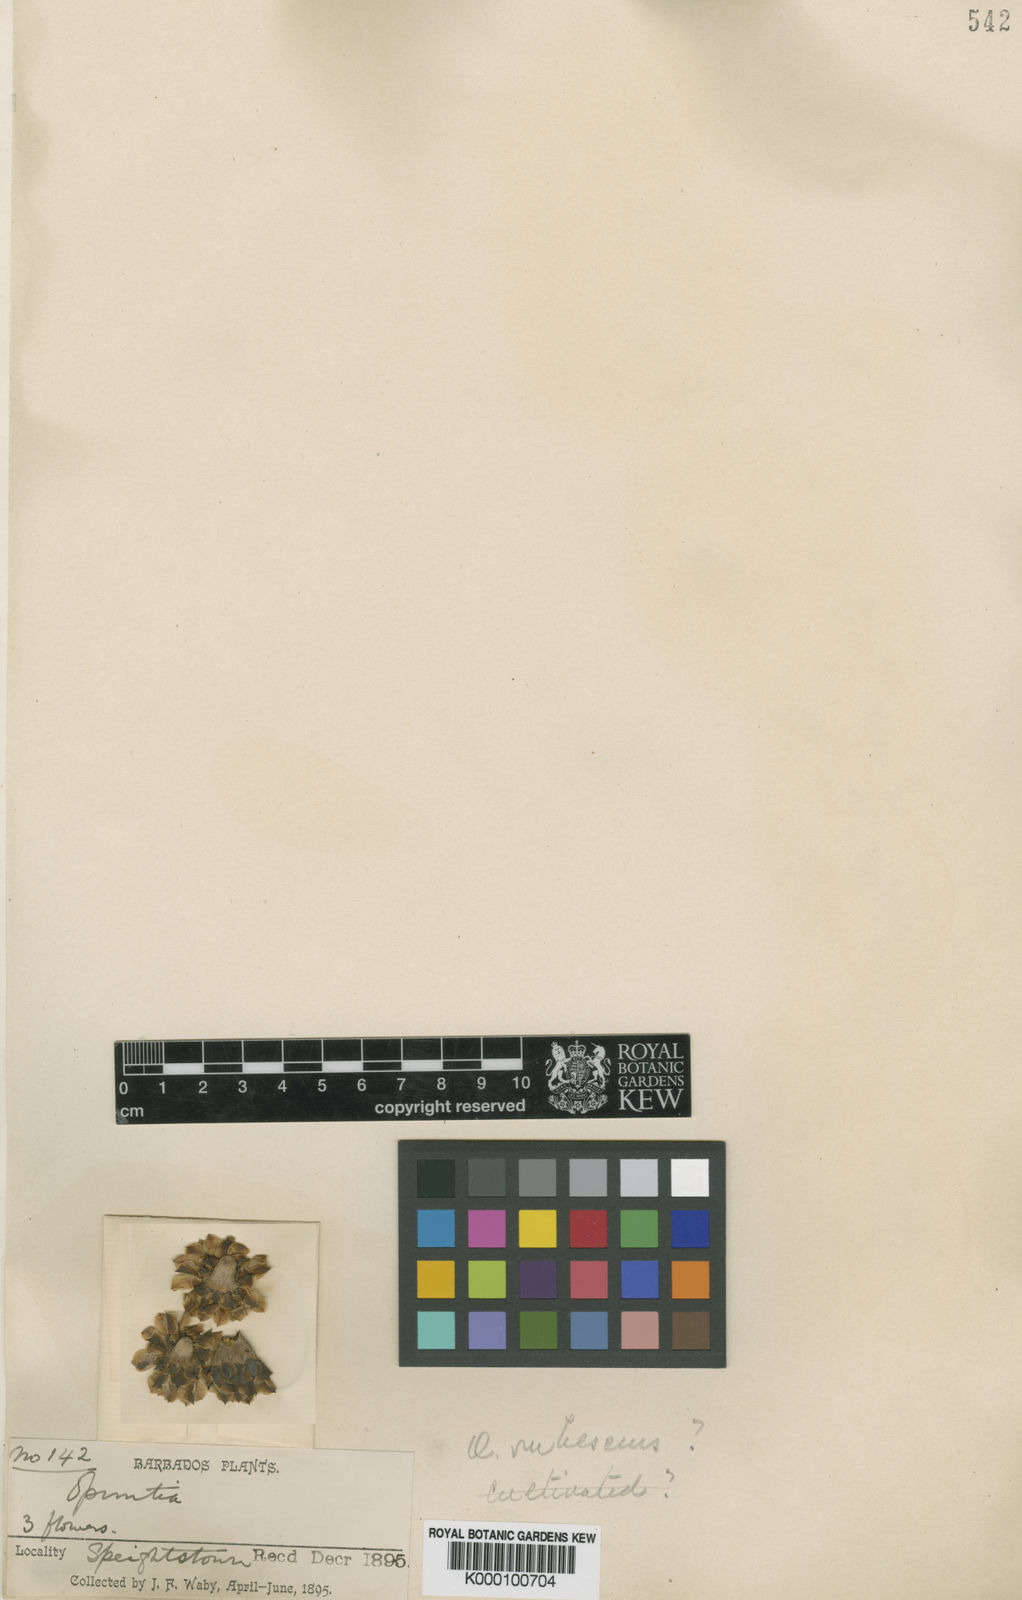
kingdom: Plantae
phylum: Tracheophyta
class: Magnoliopsida
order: Caryophyllales
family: Cactaceae
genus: Consolea
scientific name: Consolea rubescens
